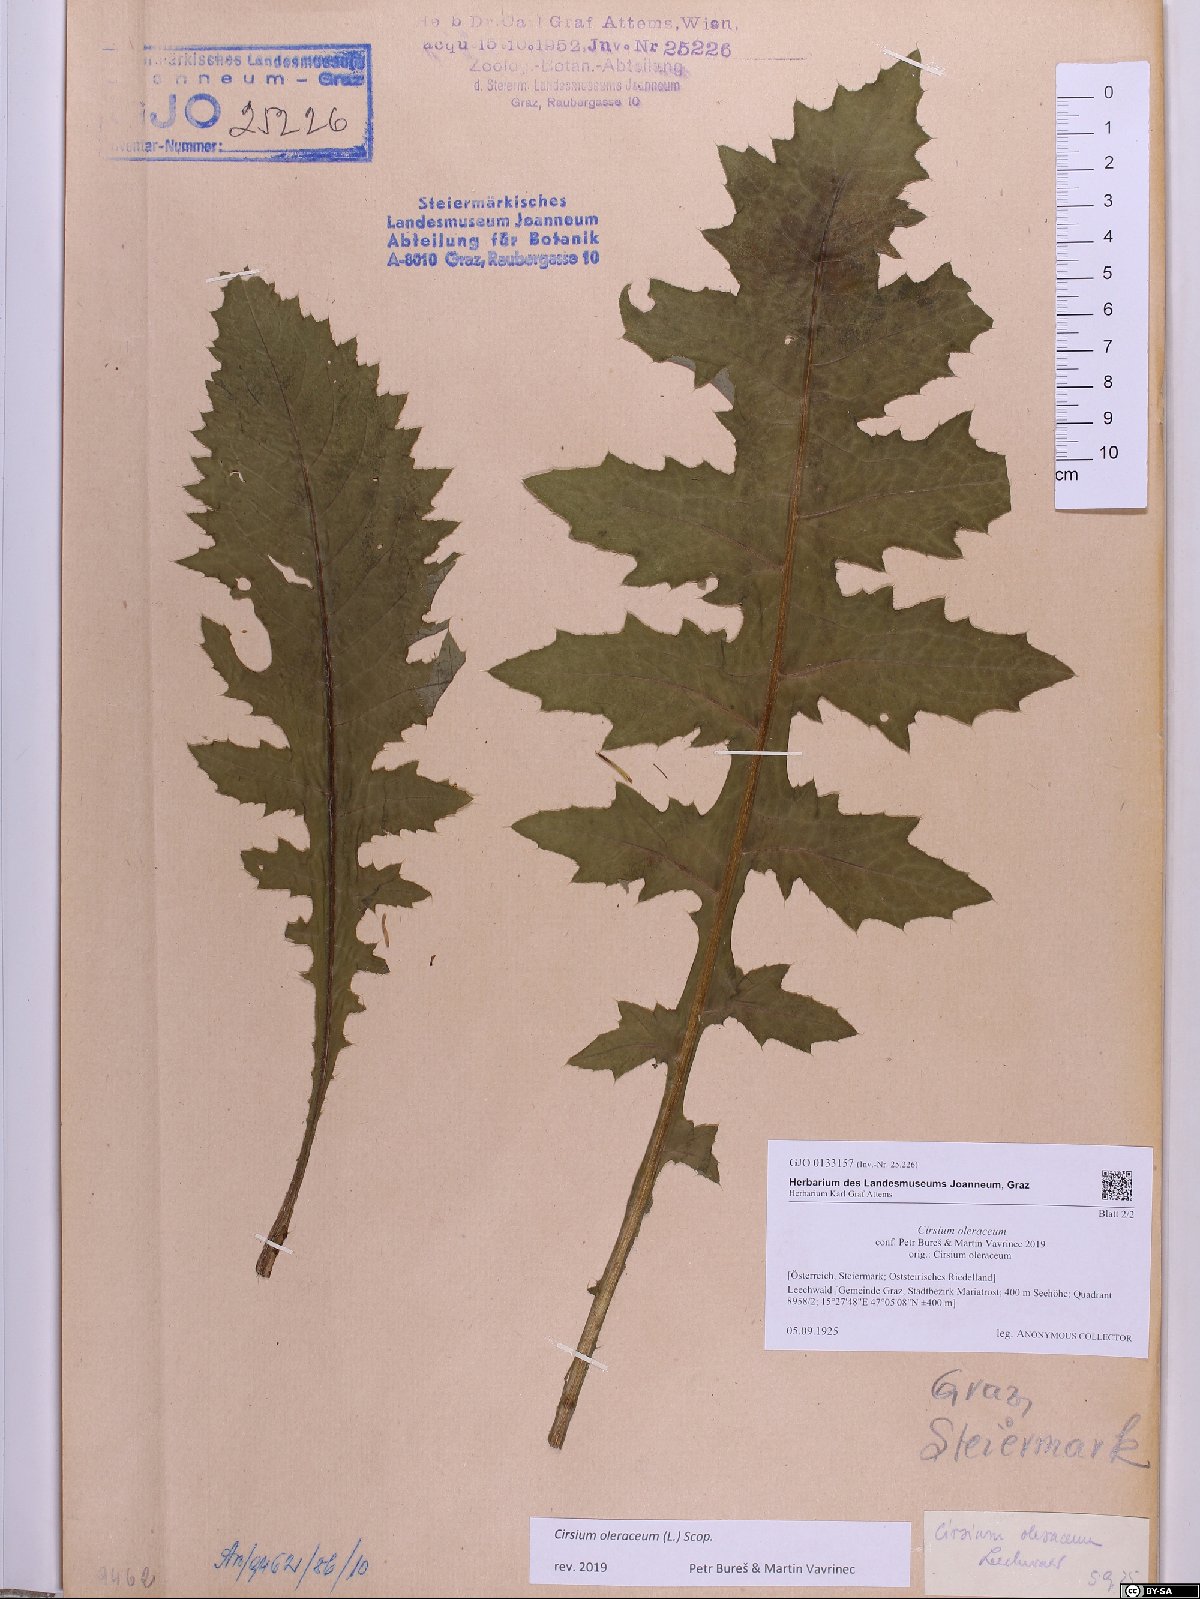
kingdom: Plantae
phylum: Tracheophyta
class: Magnoliopsida
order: Asterales
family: Asteraceae
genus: Cirsium
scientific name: Cirsium oleraceum
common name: Cabbage thistle
